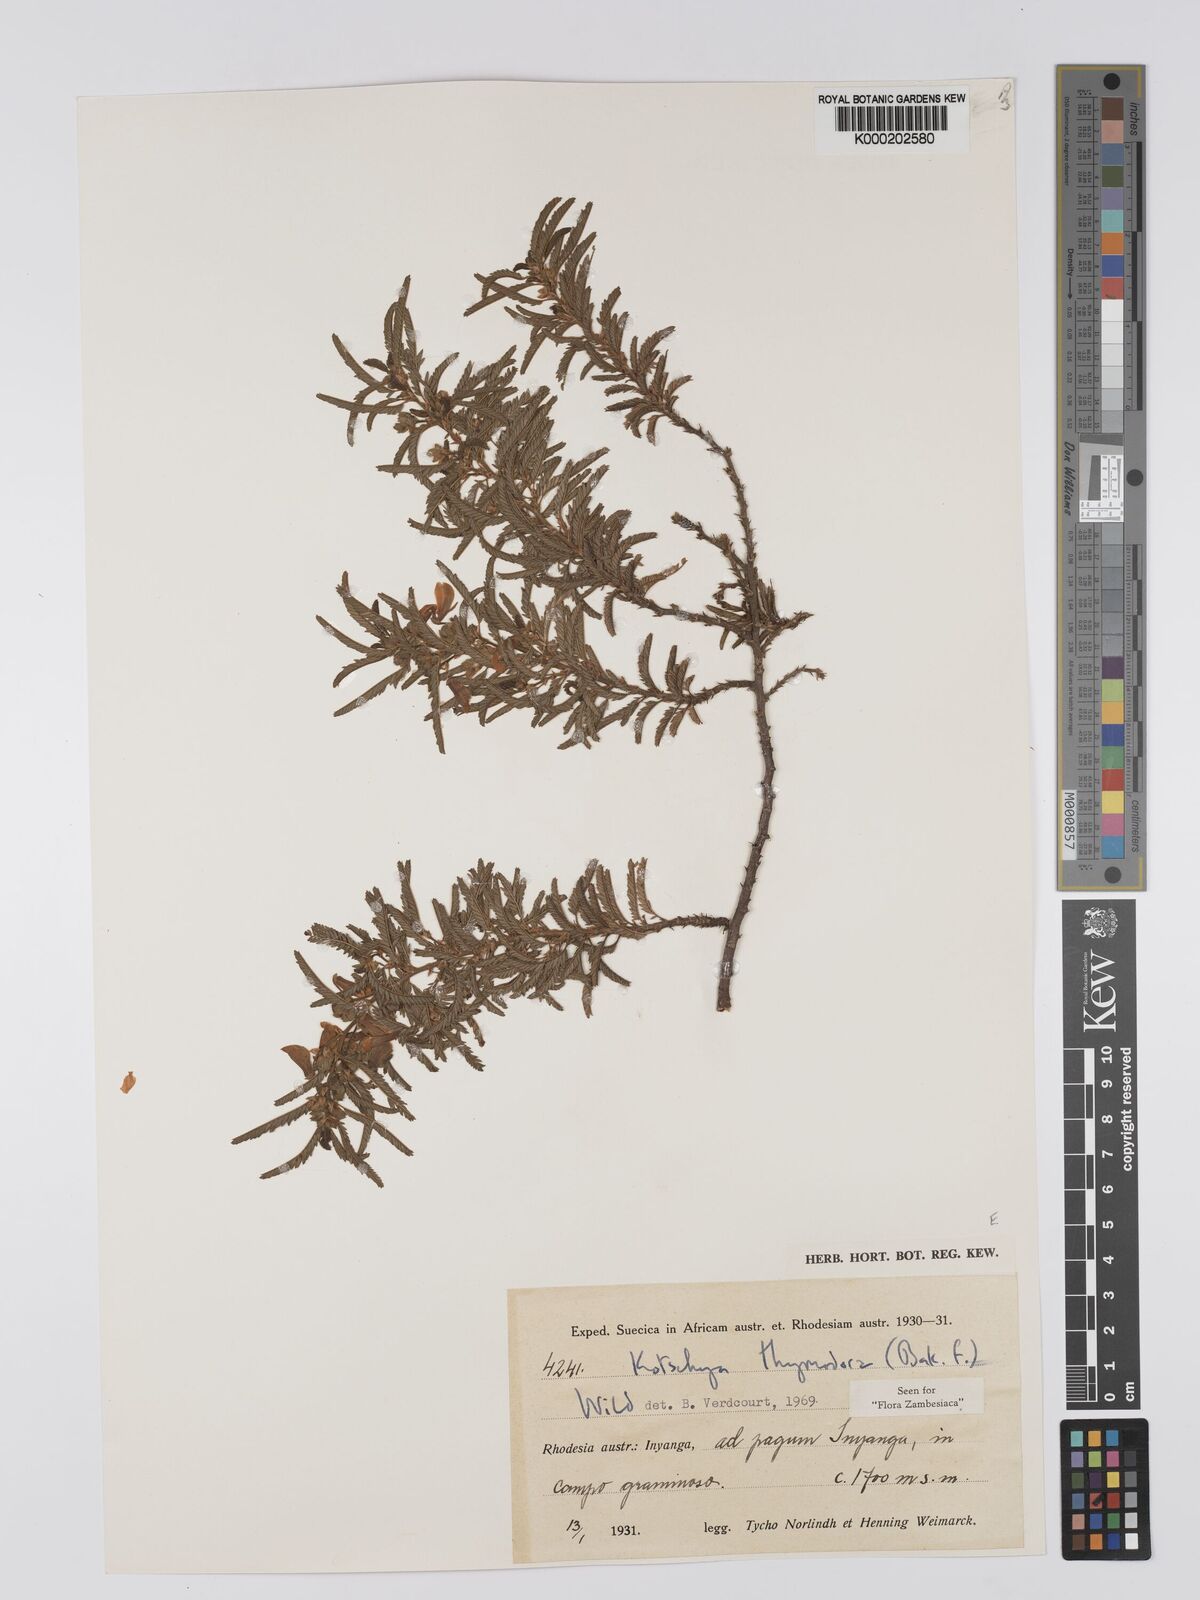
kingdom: Plantae
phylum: Tracheophyta
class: Magnoliopsida
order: Fabales
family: Fabaceae
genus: Kotschya
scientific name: Kotschya thymodora
